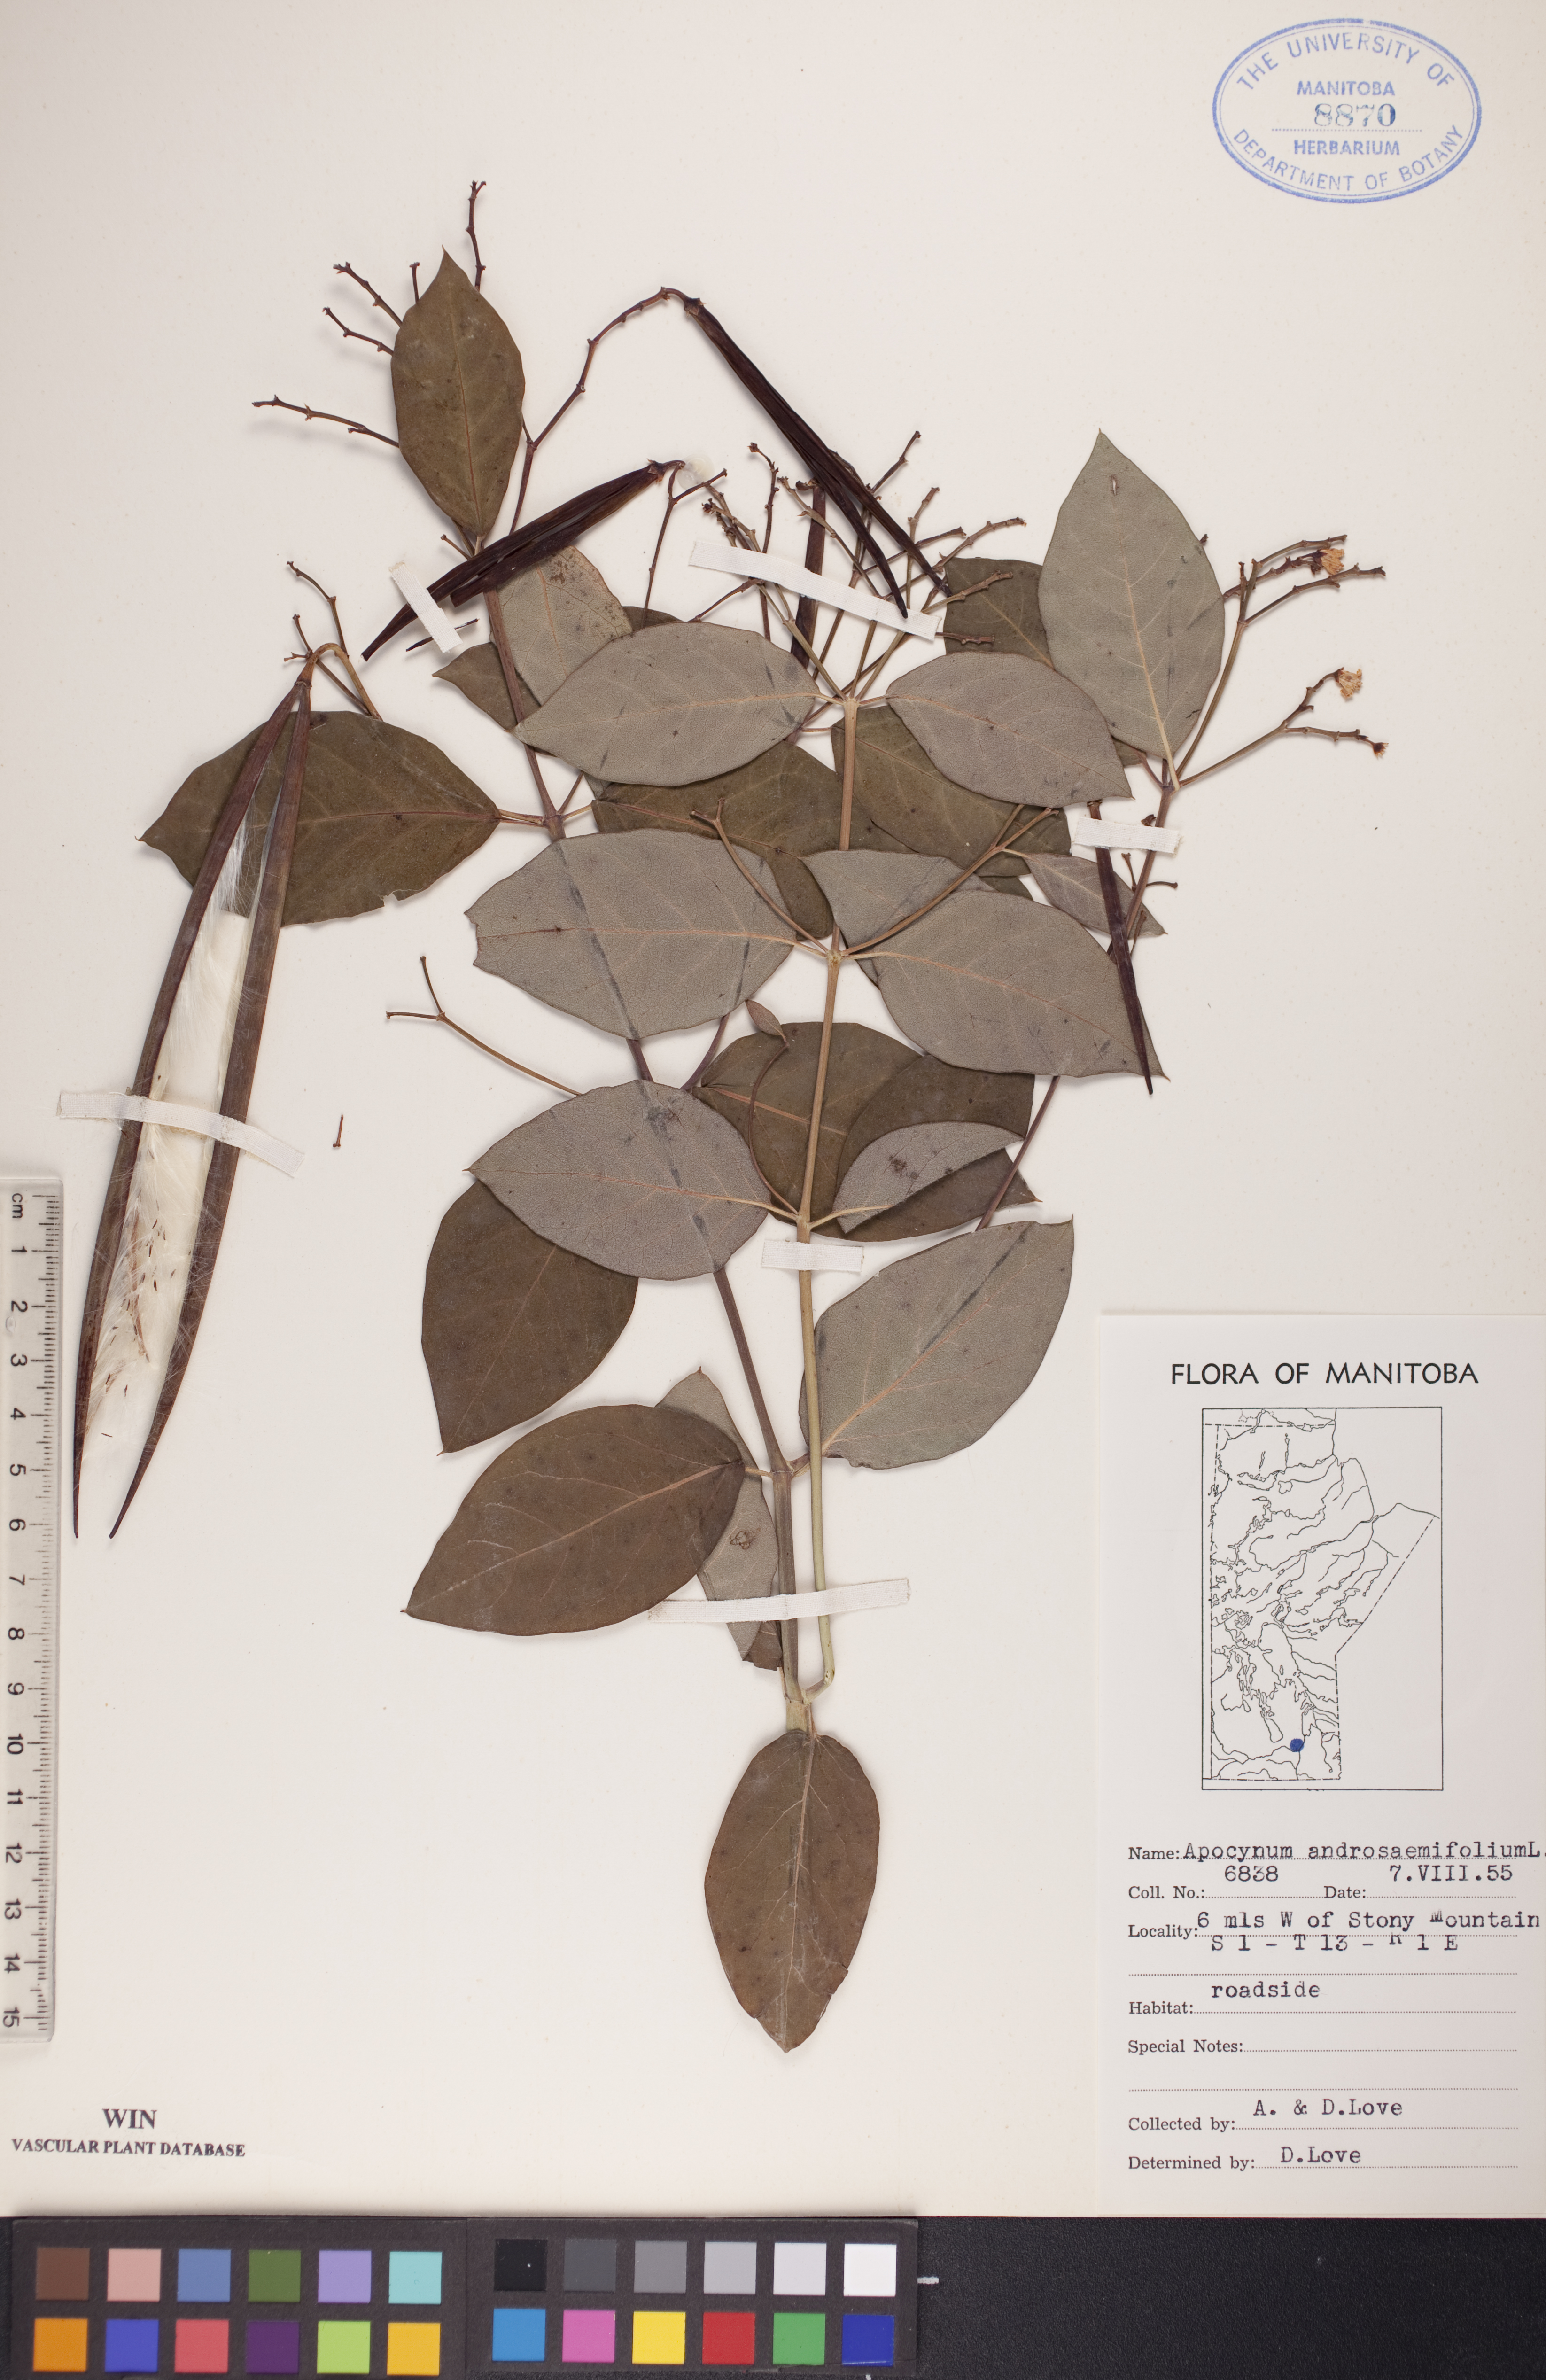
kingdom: Plantae
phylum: Tracheophyta
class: Magnoliopsida
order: Gentianales
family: Apocynaceae
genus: Apocynum
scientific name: Apocynum androsaemifolium
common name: Spreading dogbane
